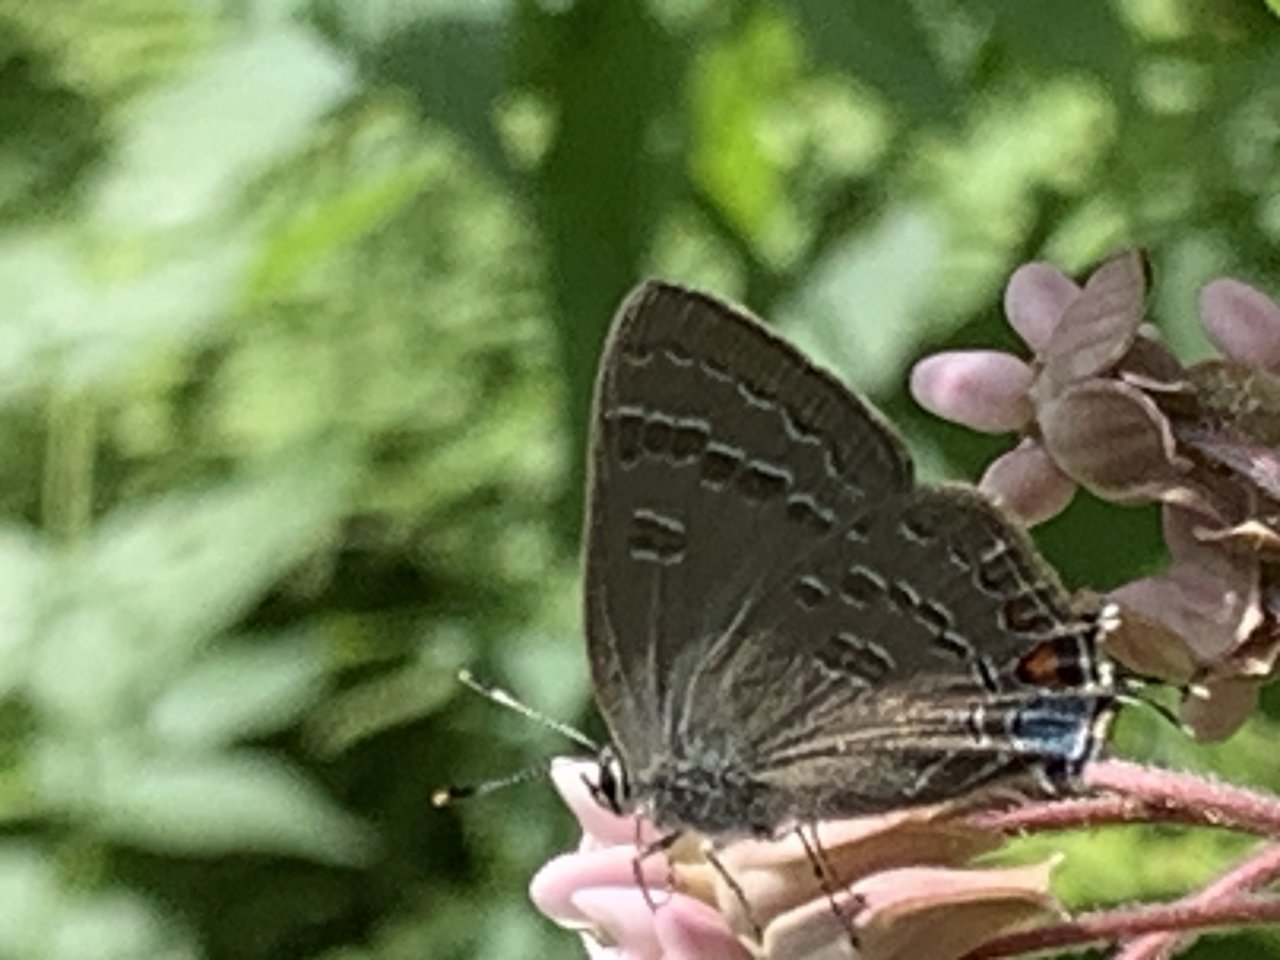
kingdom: Animalia
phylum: Arthropoda
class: Insecta
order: Lepidoptera
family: Lycaenidae
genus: Satyrium
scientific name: Satyrium calanus
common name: Banded Hairstreak
